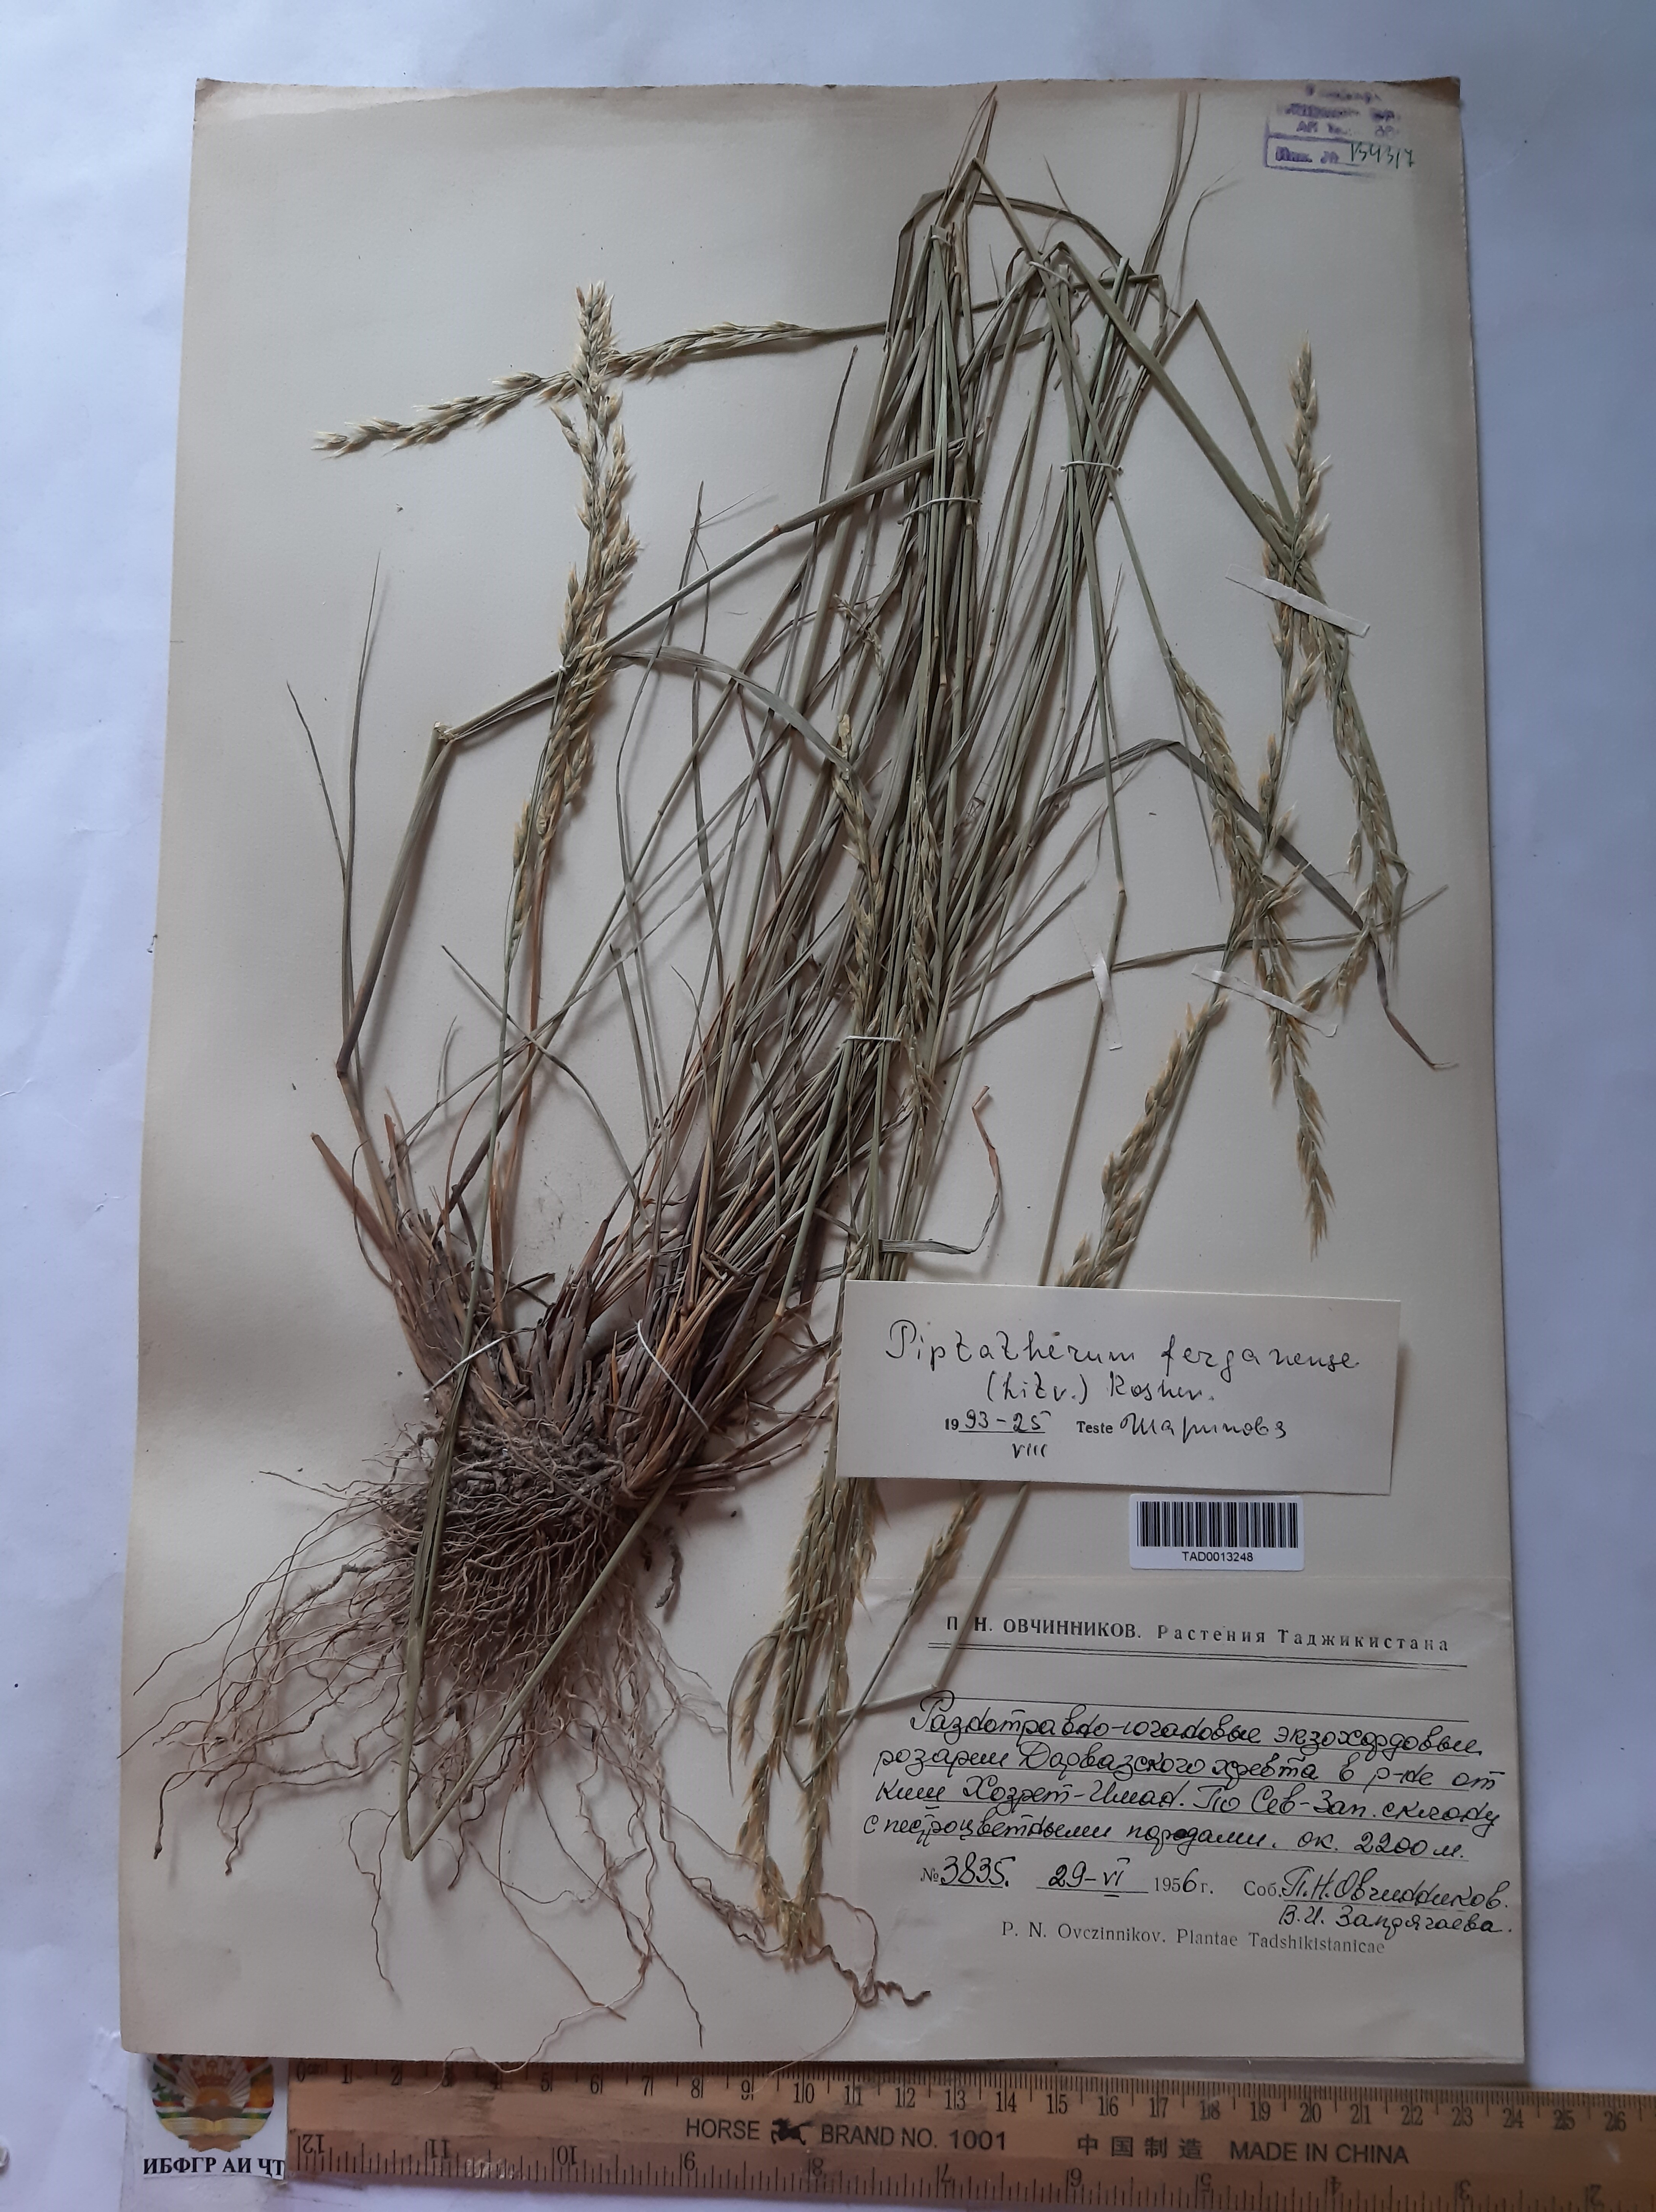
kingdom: Plantae
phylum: Tracheophyta
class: Liliopsida
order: Poales
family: Poaceae
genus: Piptatherum
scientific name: Piptatherum ferganense
